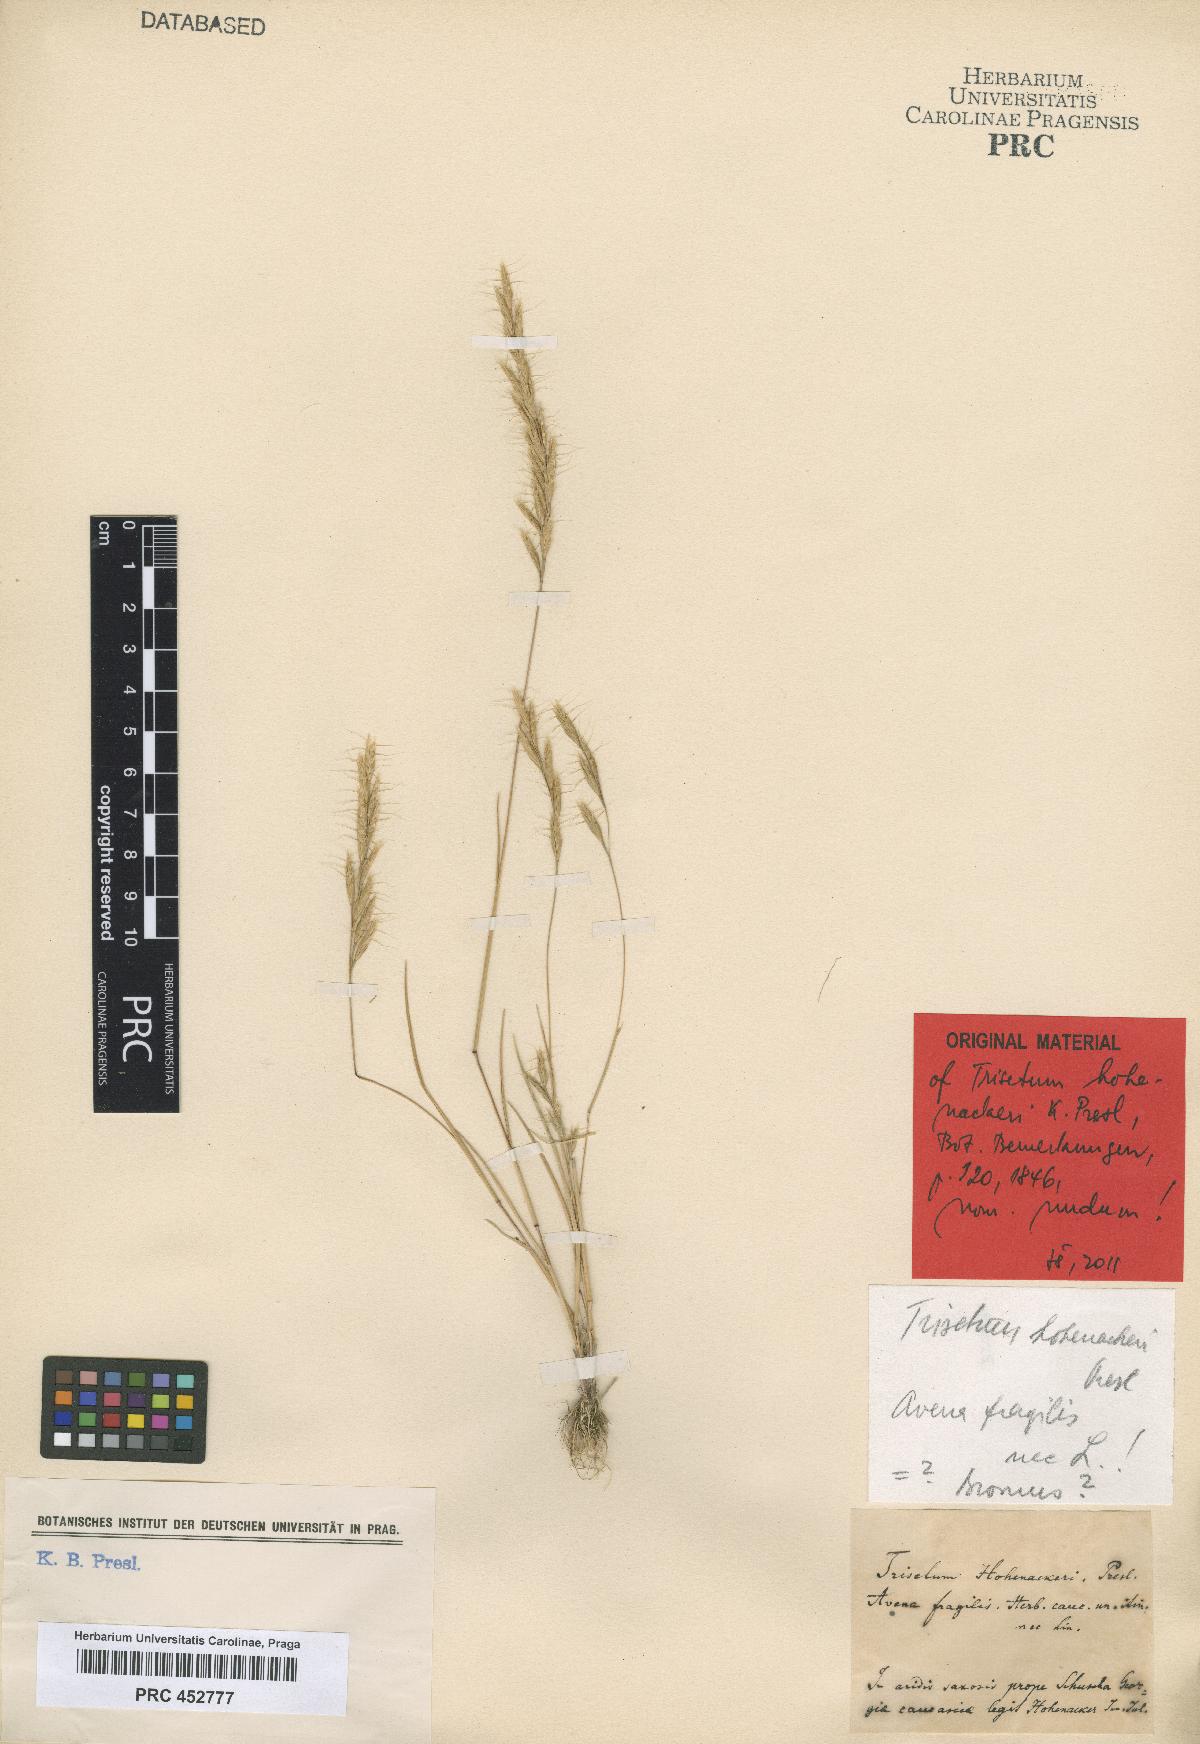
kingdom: Plantae
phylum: Tracheophyta
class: Liliopsida
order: Poales
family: Poaceae
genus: Gaudinia
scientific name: Gaudinia fragilis
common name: French oat-grass
